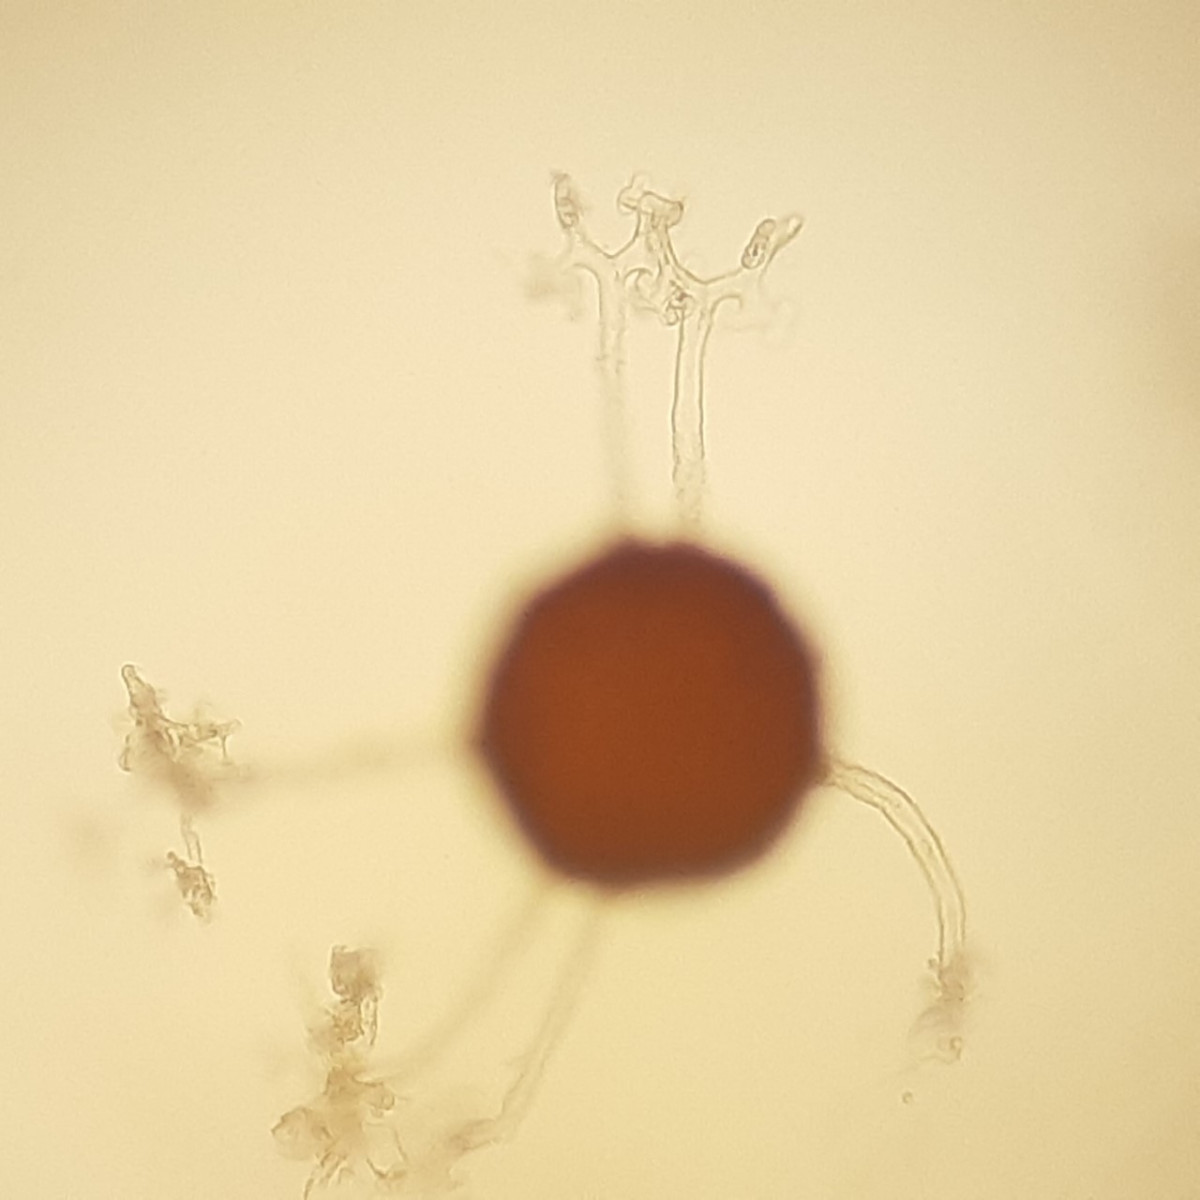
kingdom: Fungi
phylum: Ascomycota
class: Leotiomycetes
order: Helotiales
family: Erysiphaceae
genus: Erysiphe
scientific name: Erysiphe ornata
